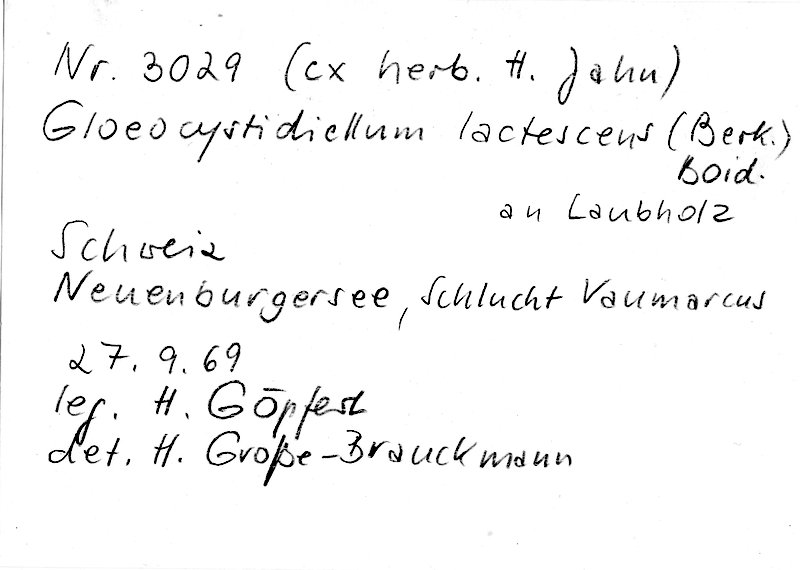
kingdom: Fungi
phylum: Basidiomycota
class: Agaricomycetes
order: Russulales
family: Peniophoraceae
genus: Gloiothele
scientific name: Gloiothele lactescens
